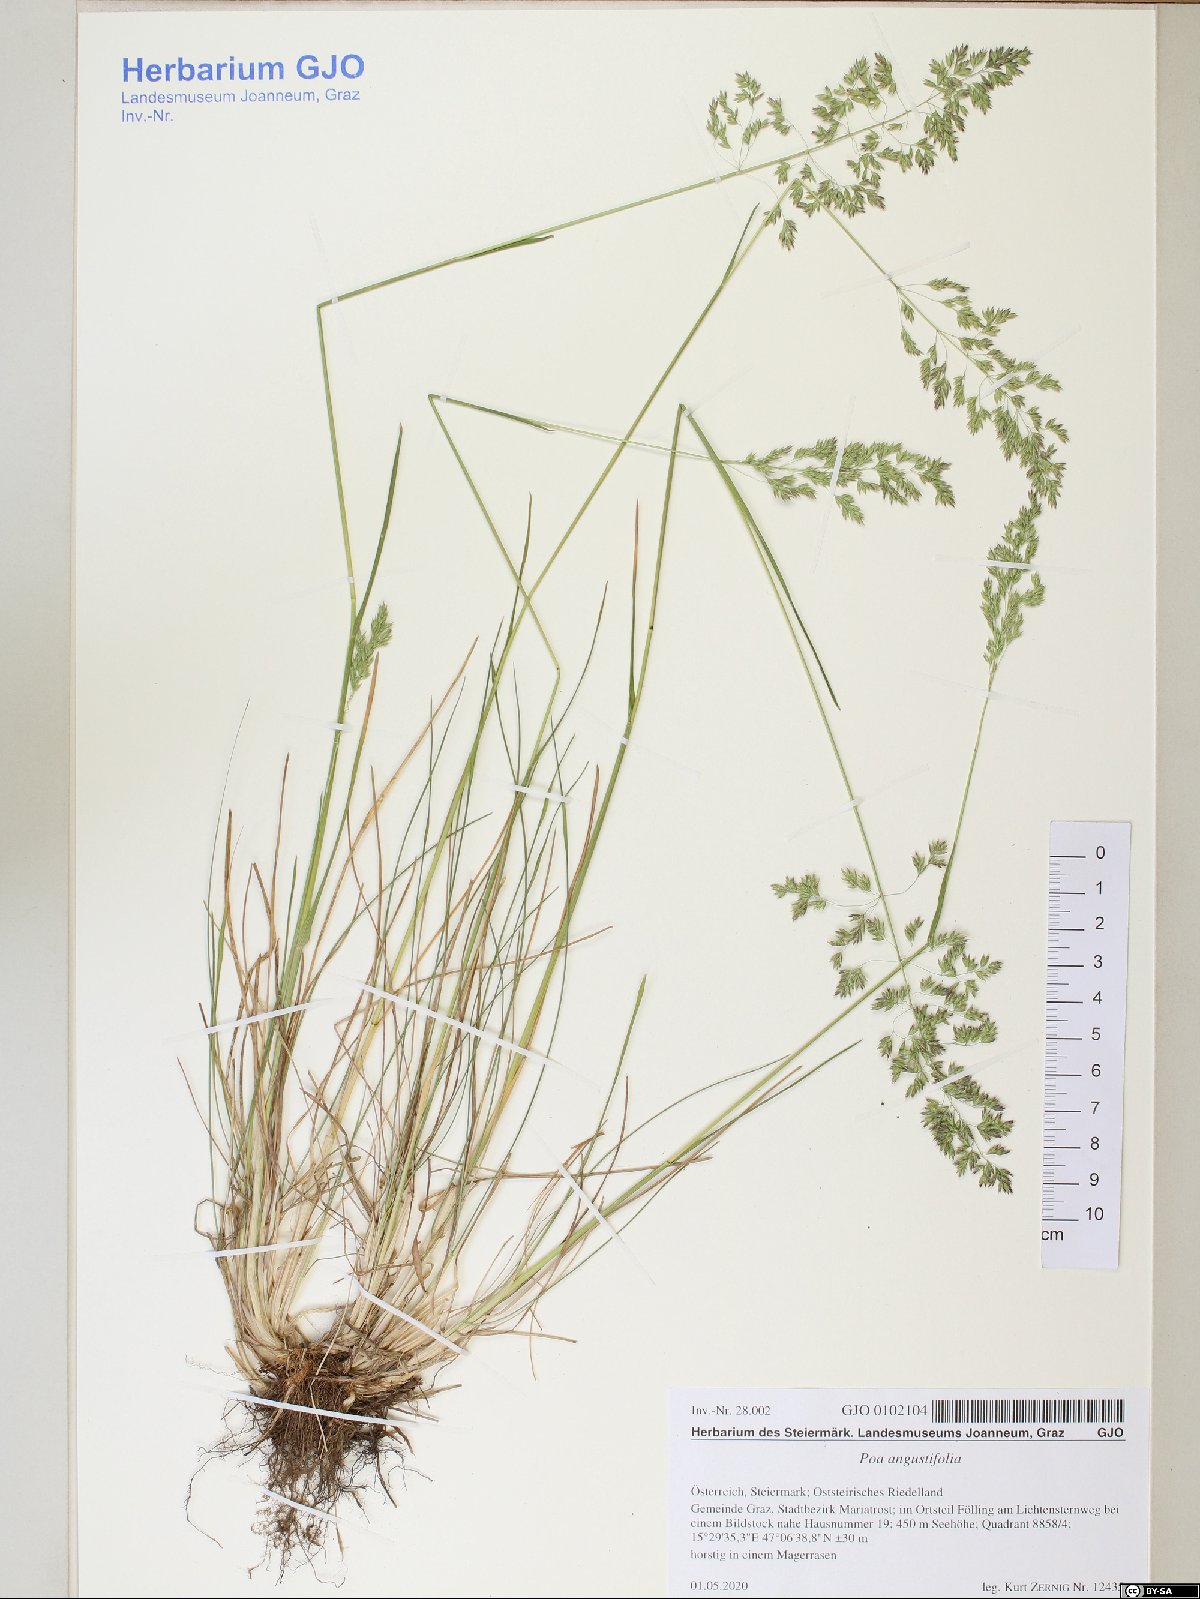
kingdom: Plantae
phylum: Tracheophyta
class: Liliopsida
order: Poales
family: Poaceae
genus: Poa
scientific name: Poa angustifolia
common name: Narrow-leaved meadow-grass
